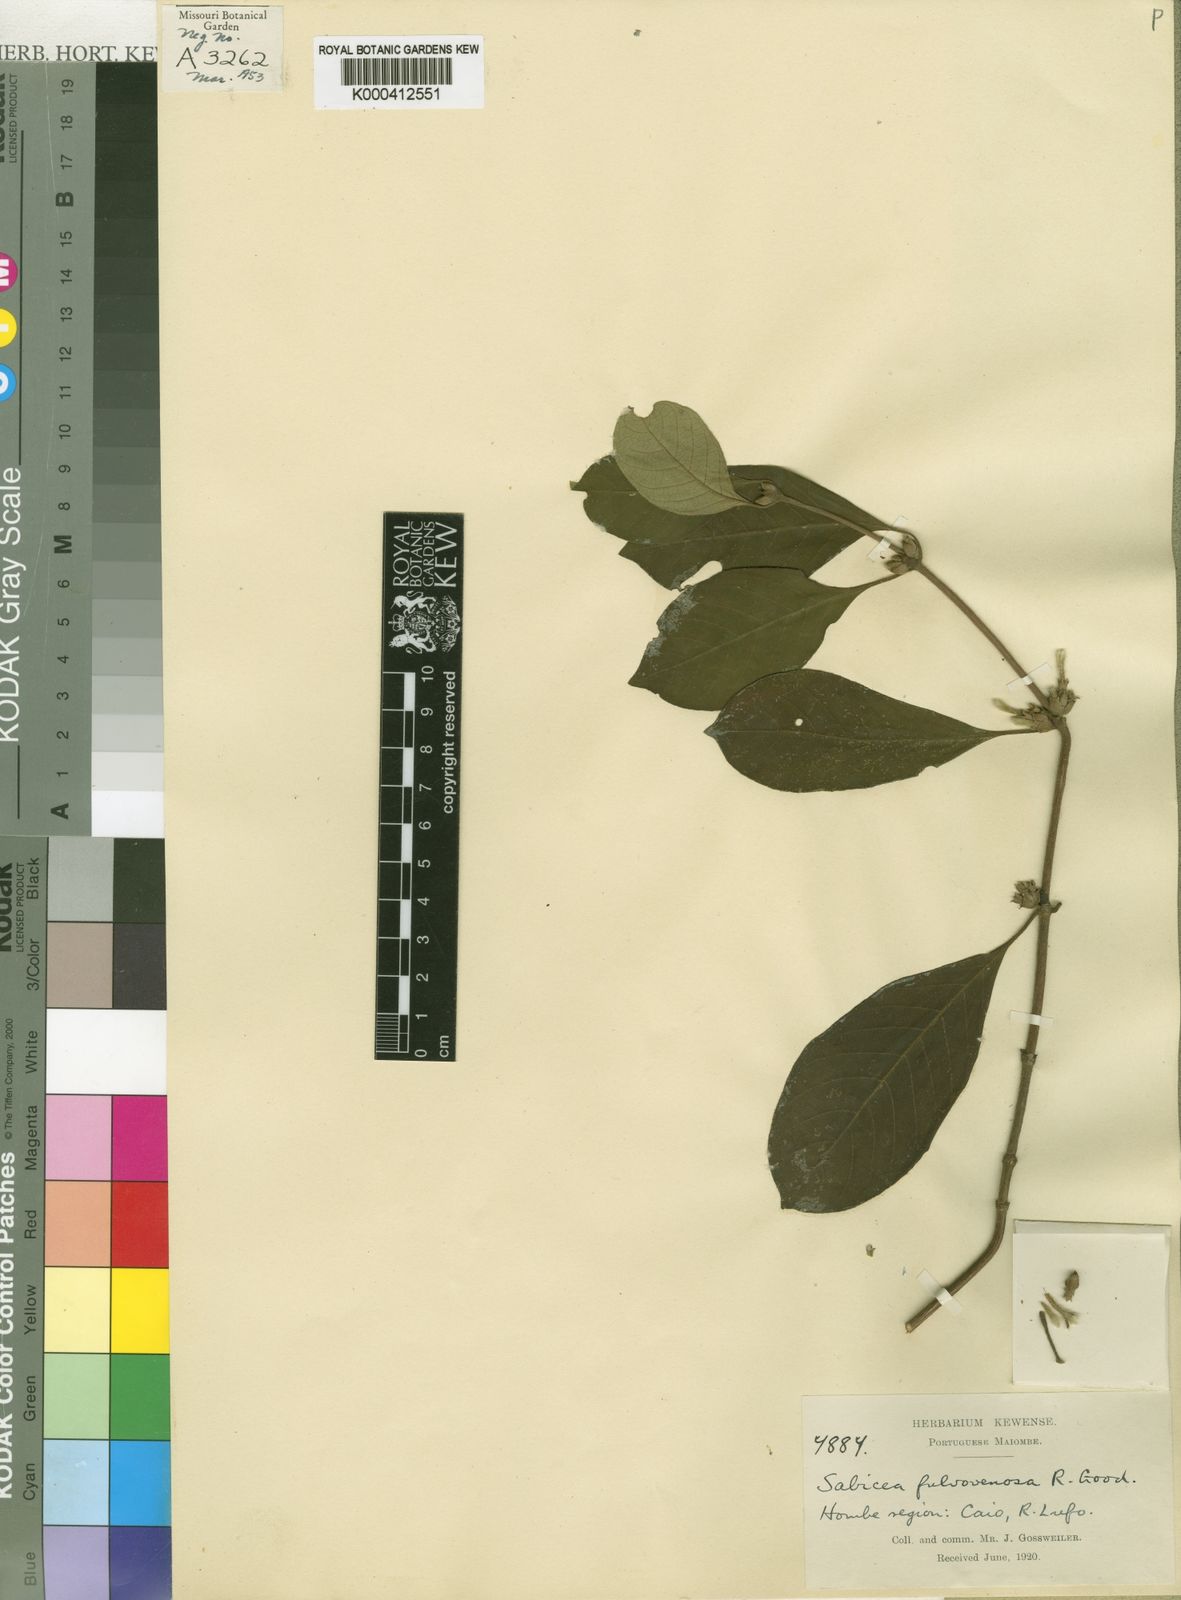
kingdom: Plantae
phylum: Tracheophyta
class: Magnoliopsida
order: Gentianales
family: Rubiaceae
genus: Sabicea
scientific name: Sabicea fulvovenosa
